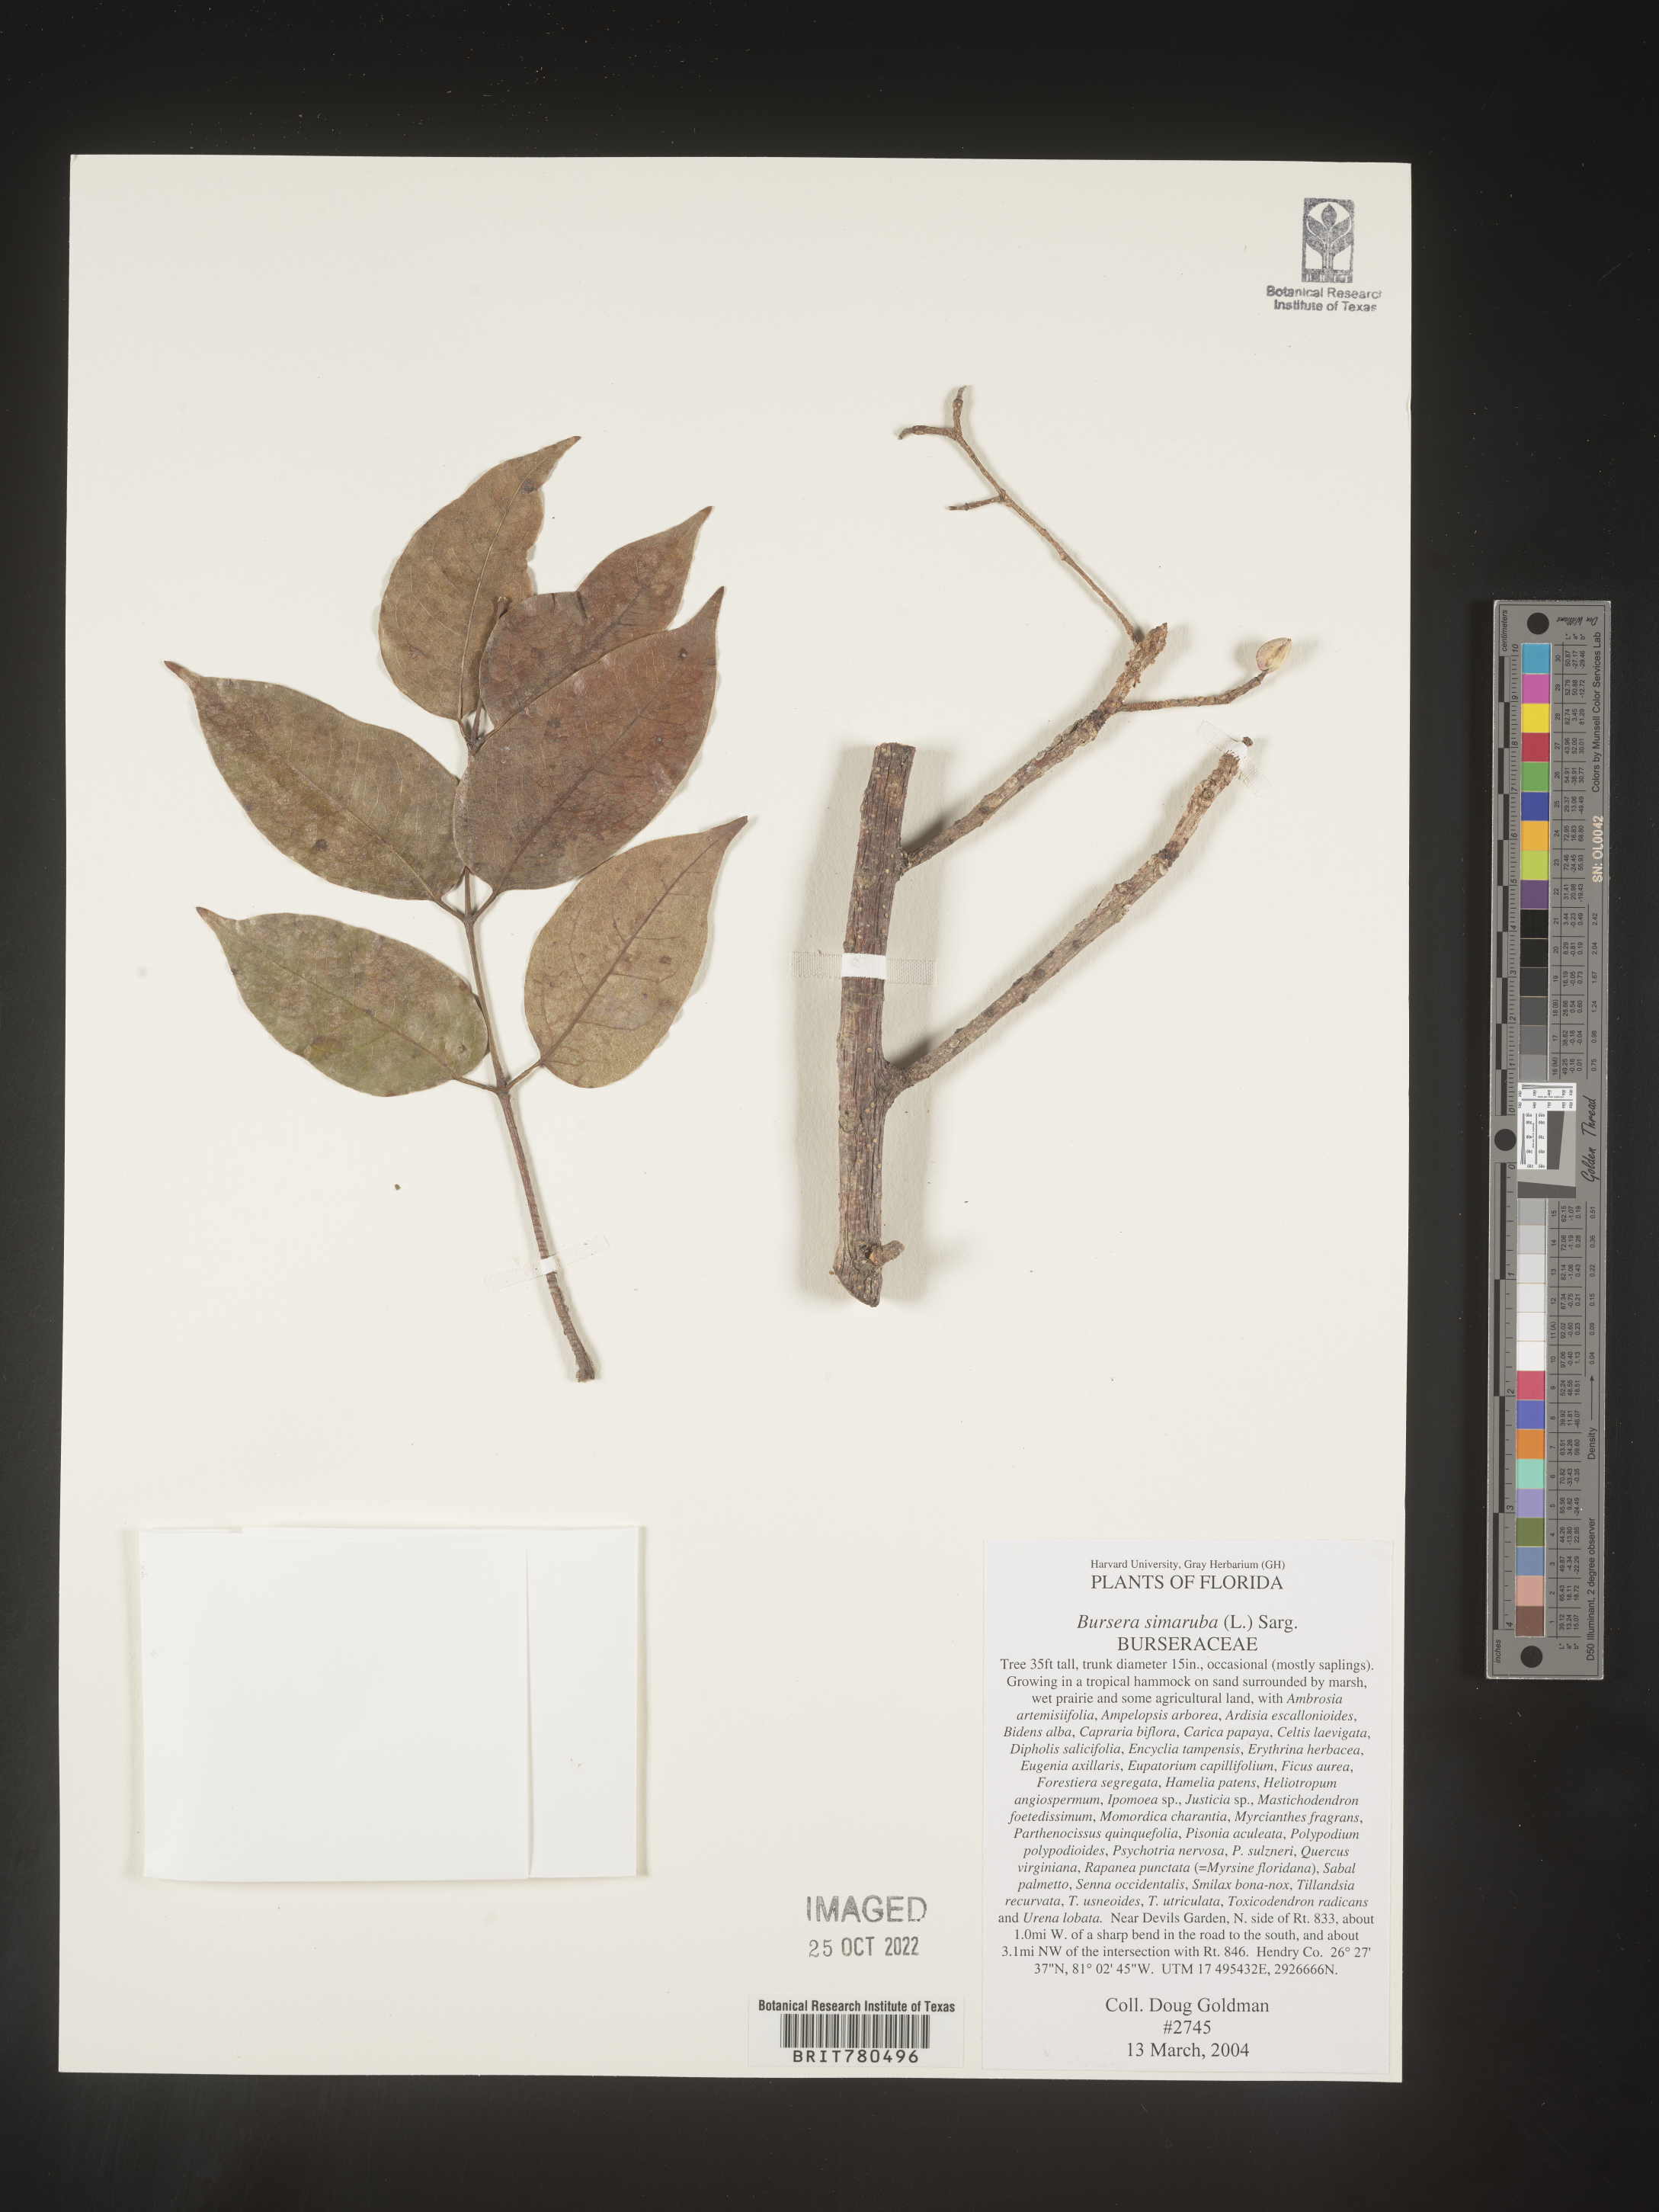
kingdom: Plantae
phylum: Tracheophyta
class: Magnoliopsida
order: Sapindales
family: Burseraceae
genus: Bursera
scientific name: Bursera
